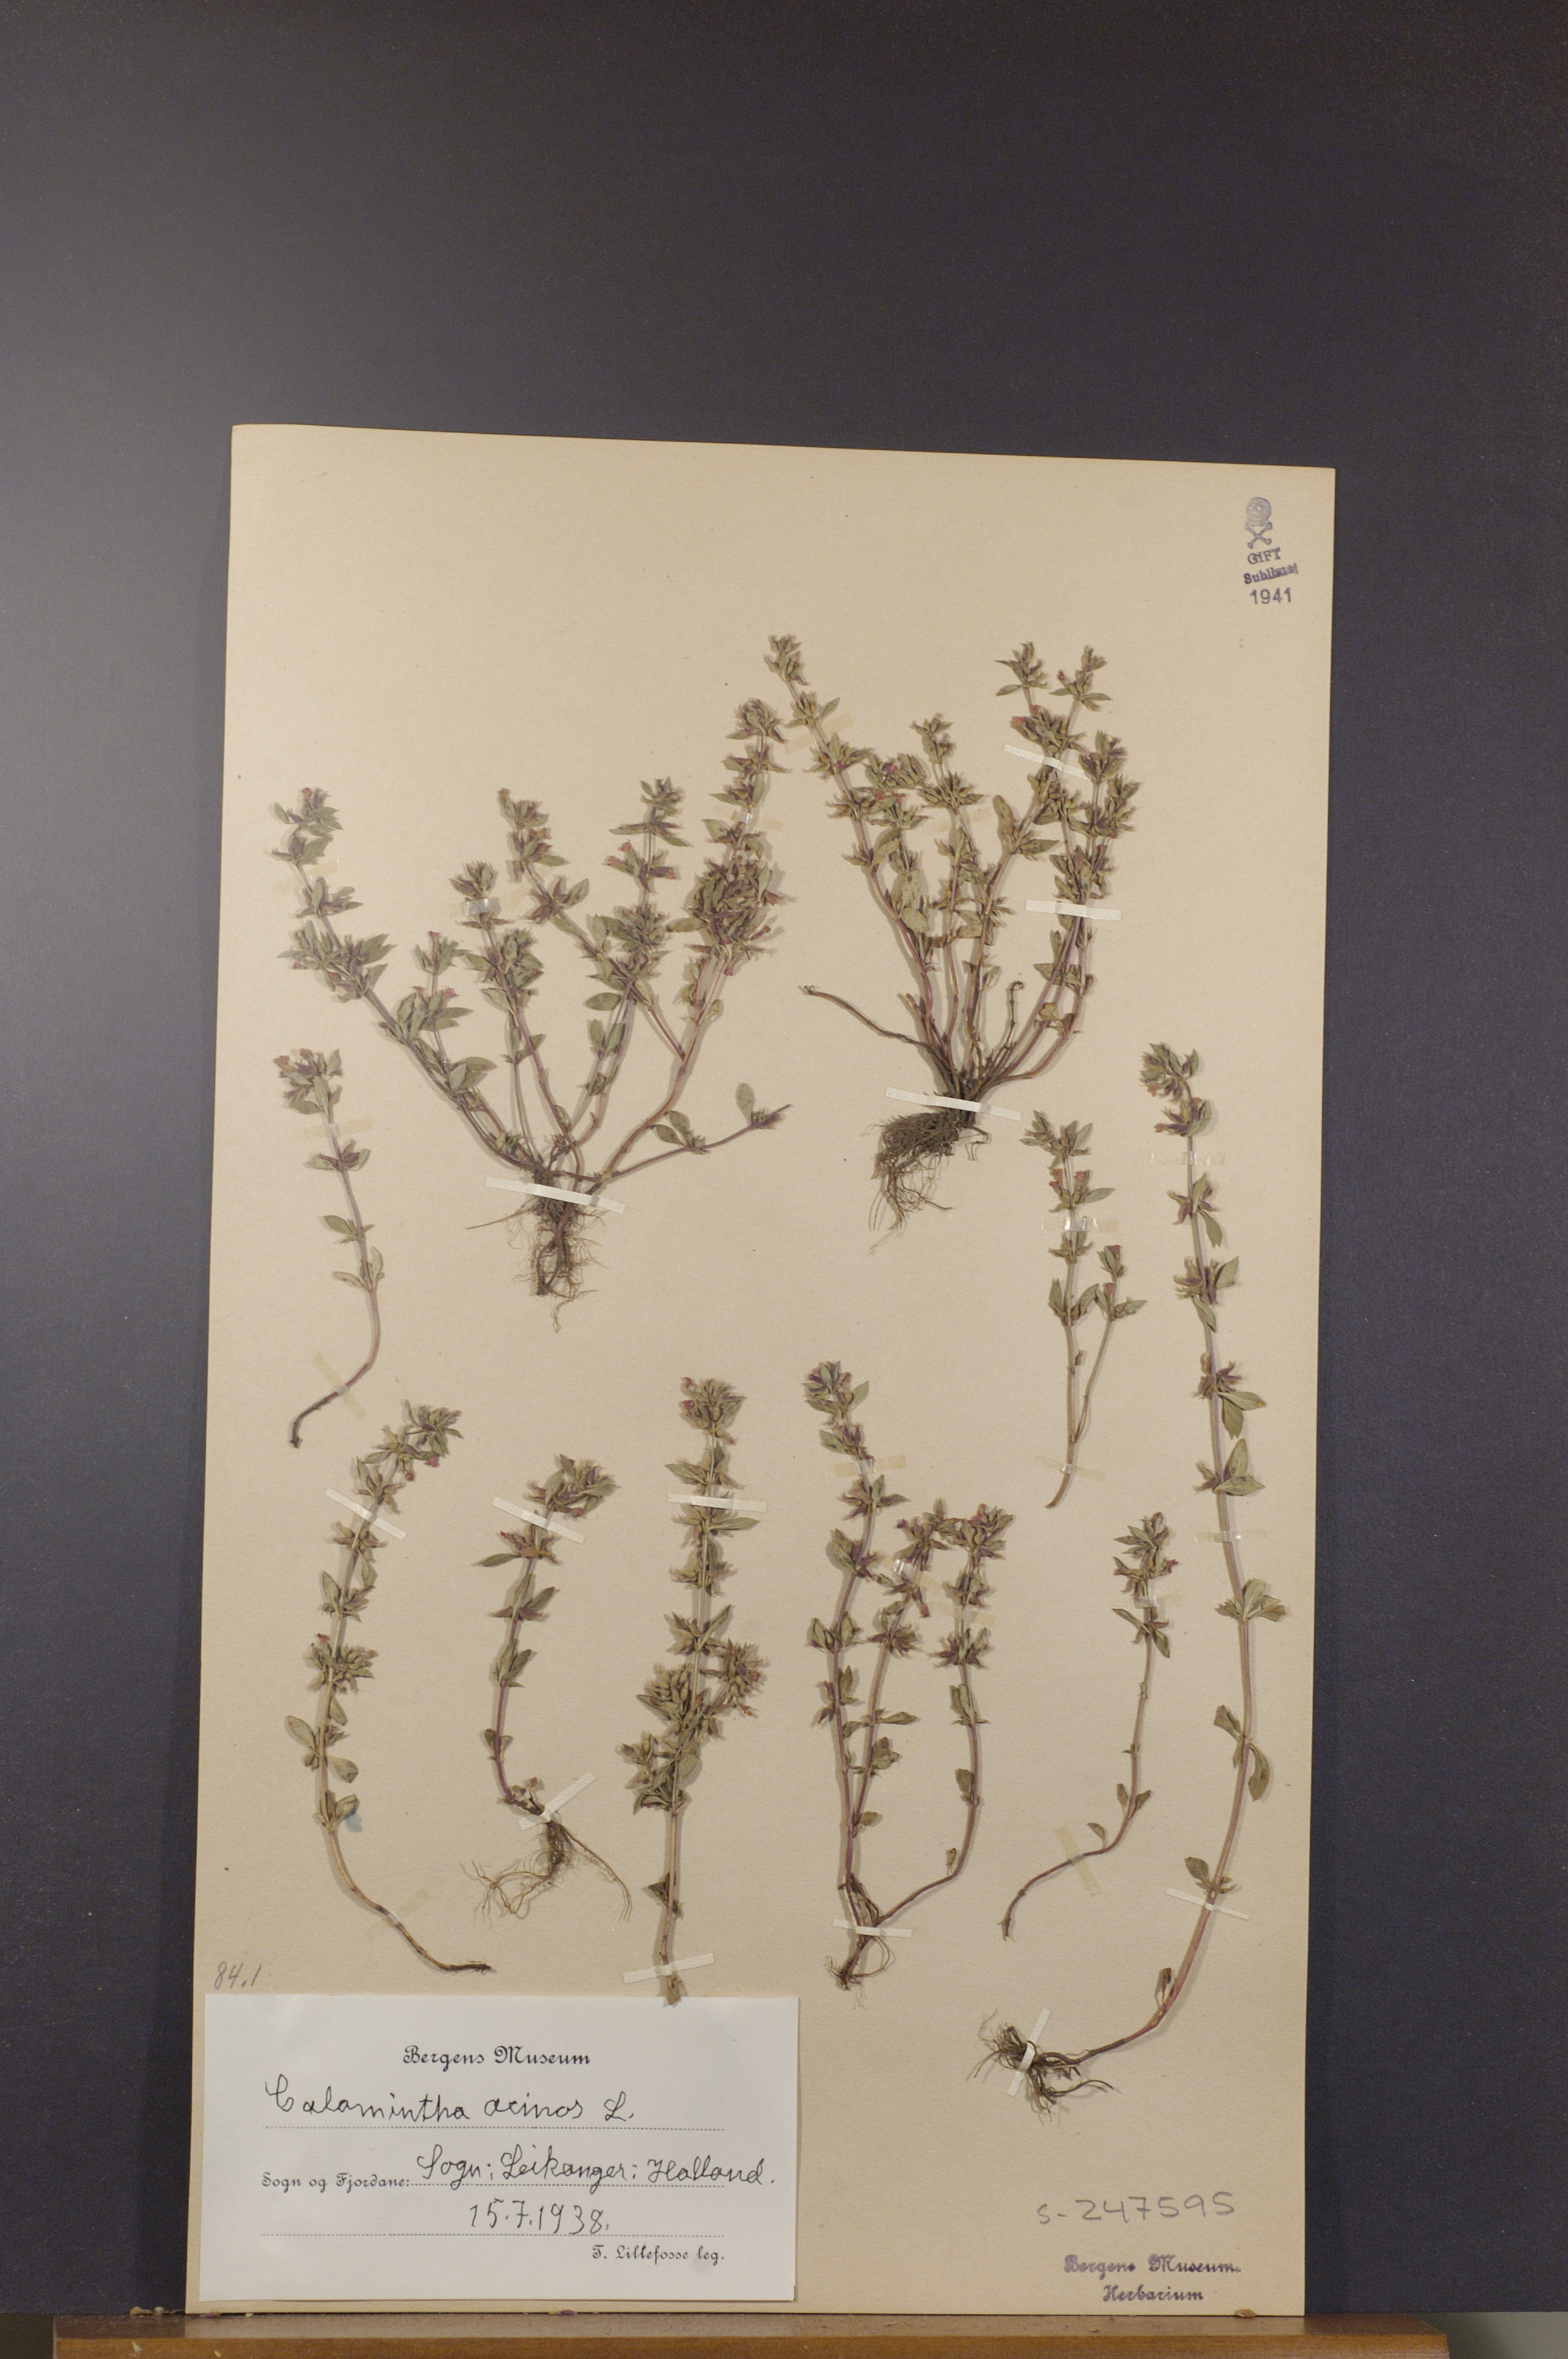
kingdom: Plantae
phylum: Tracheophyta
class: Magnoliopsida
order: Lamiales
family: Lamiaceae
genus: Clinopodium
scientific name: Clinopodium acinos
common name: Basil thyme
